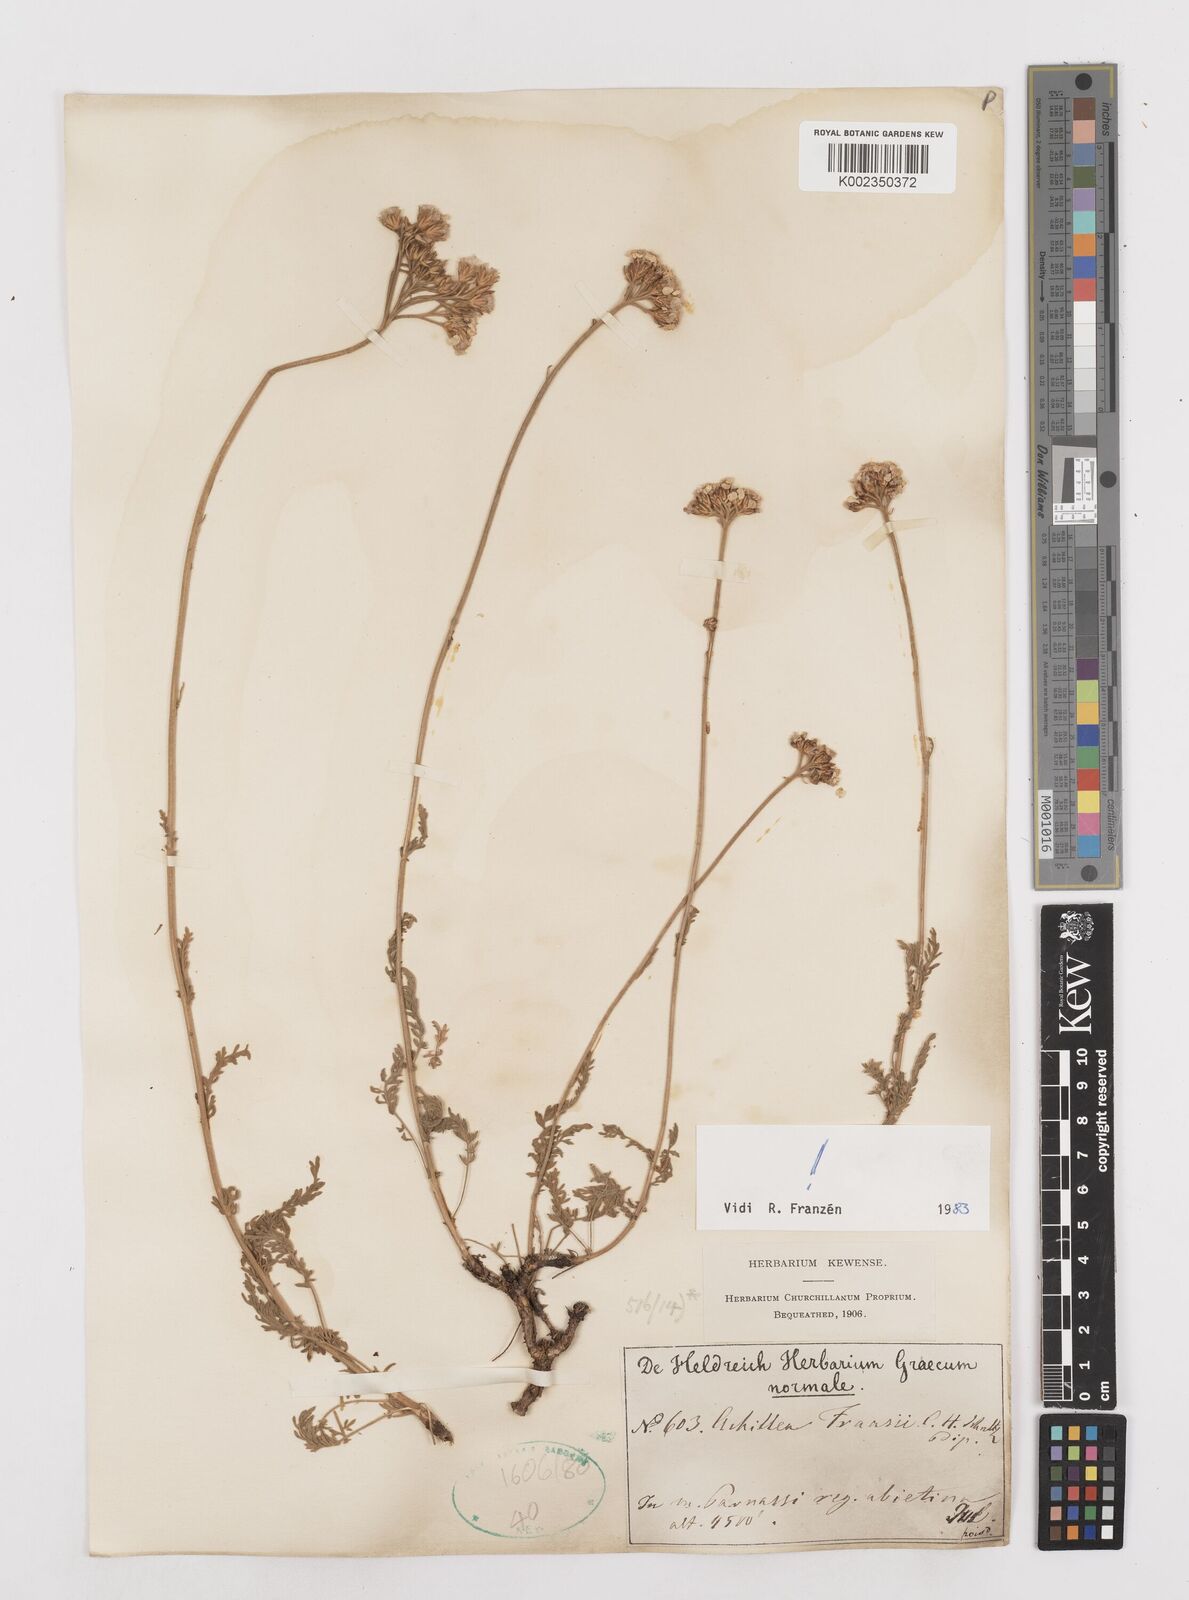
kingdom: Plantae
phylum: Tracheophyta
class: Magnoliopsida
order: Asterales
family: Asteraceae
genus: Achillea
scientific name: Achillea fraasii
